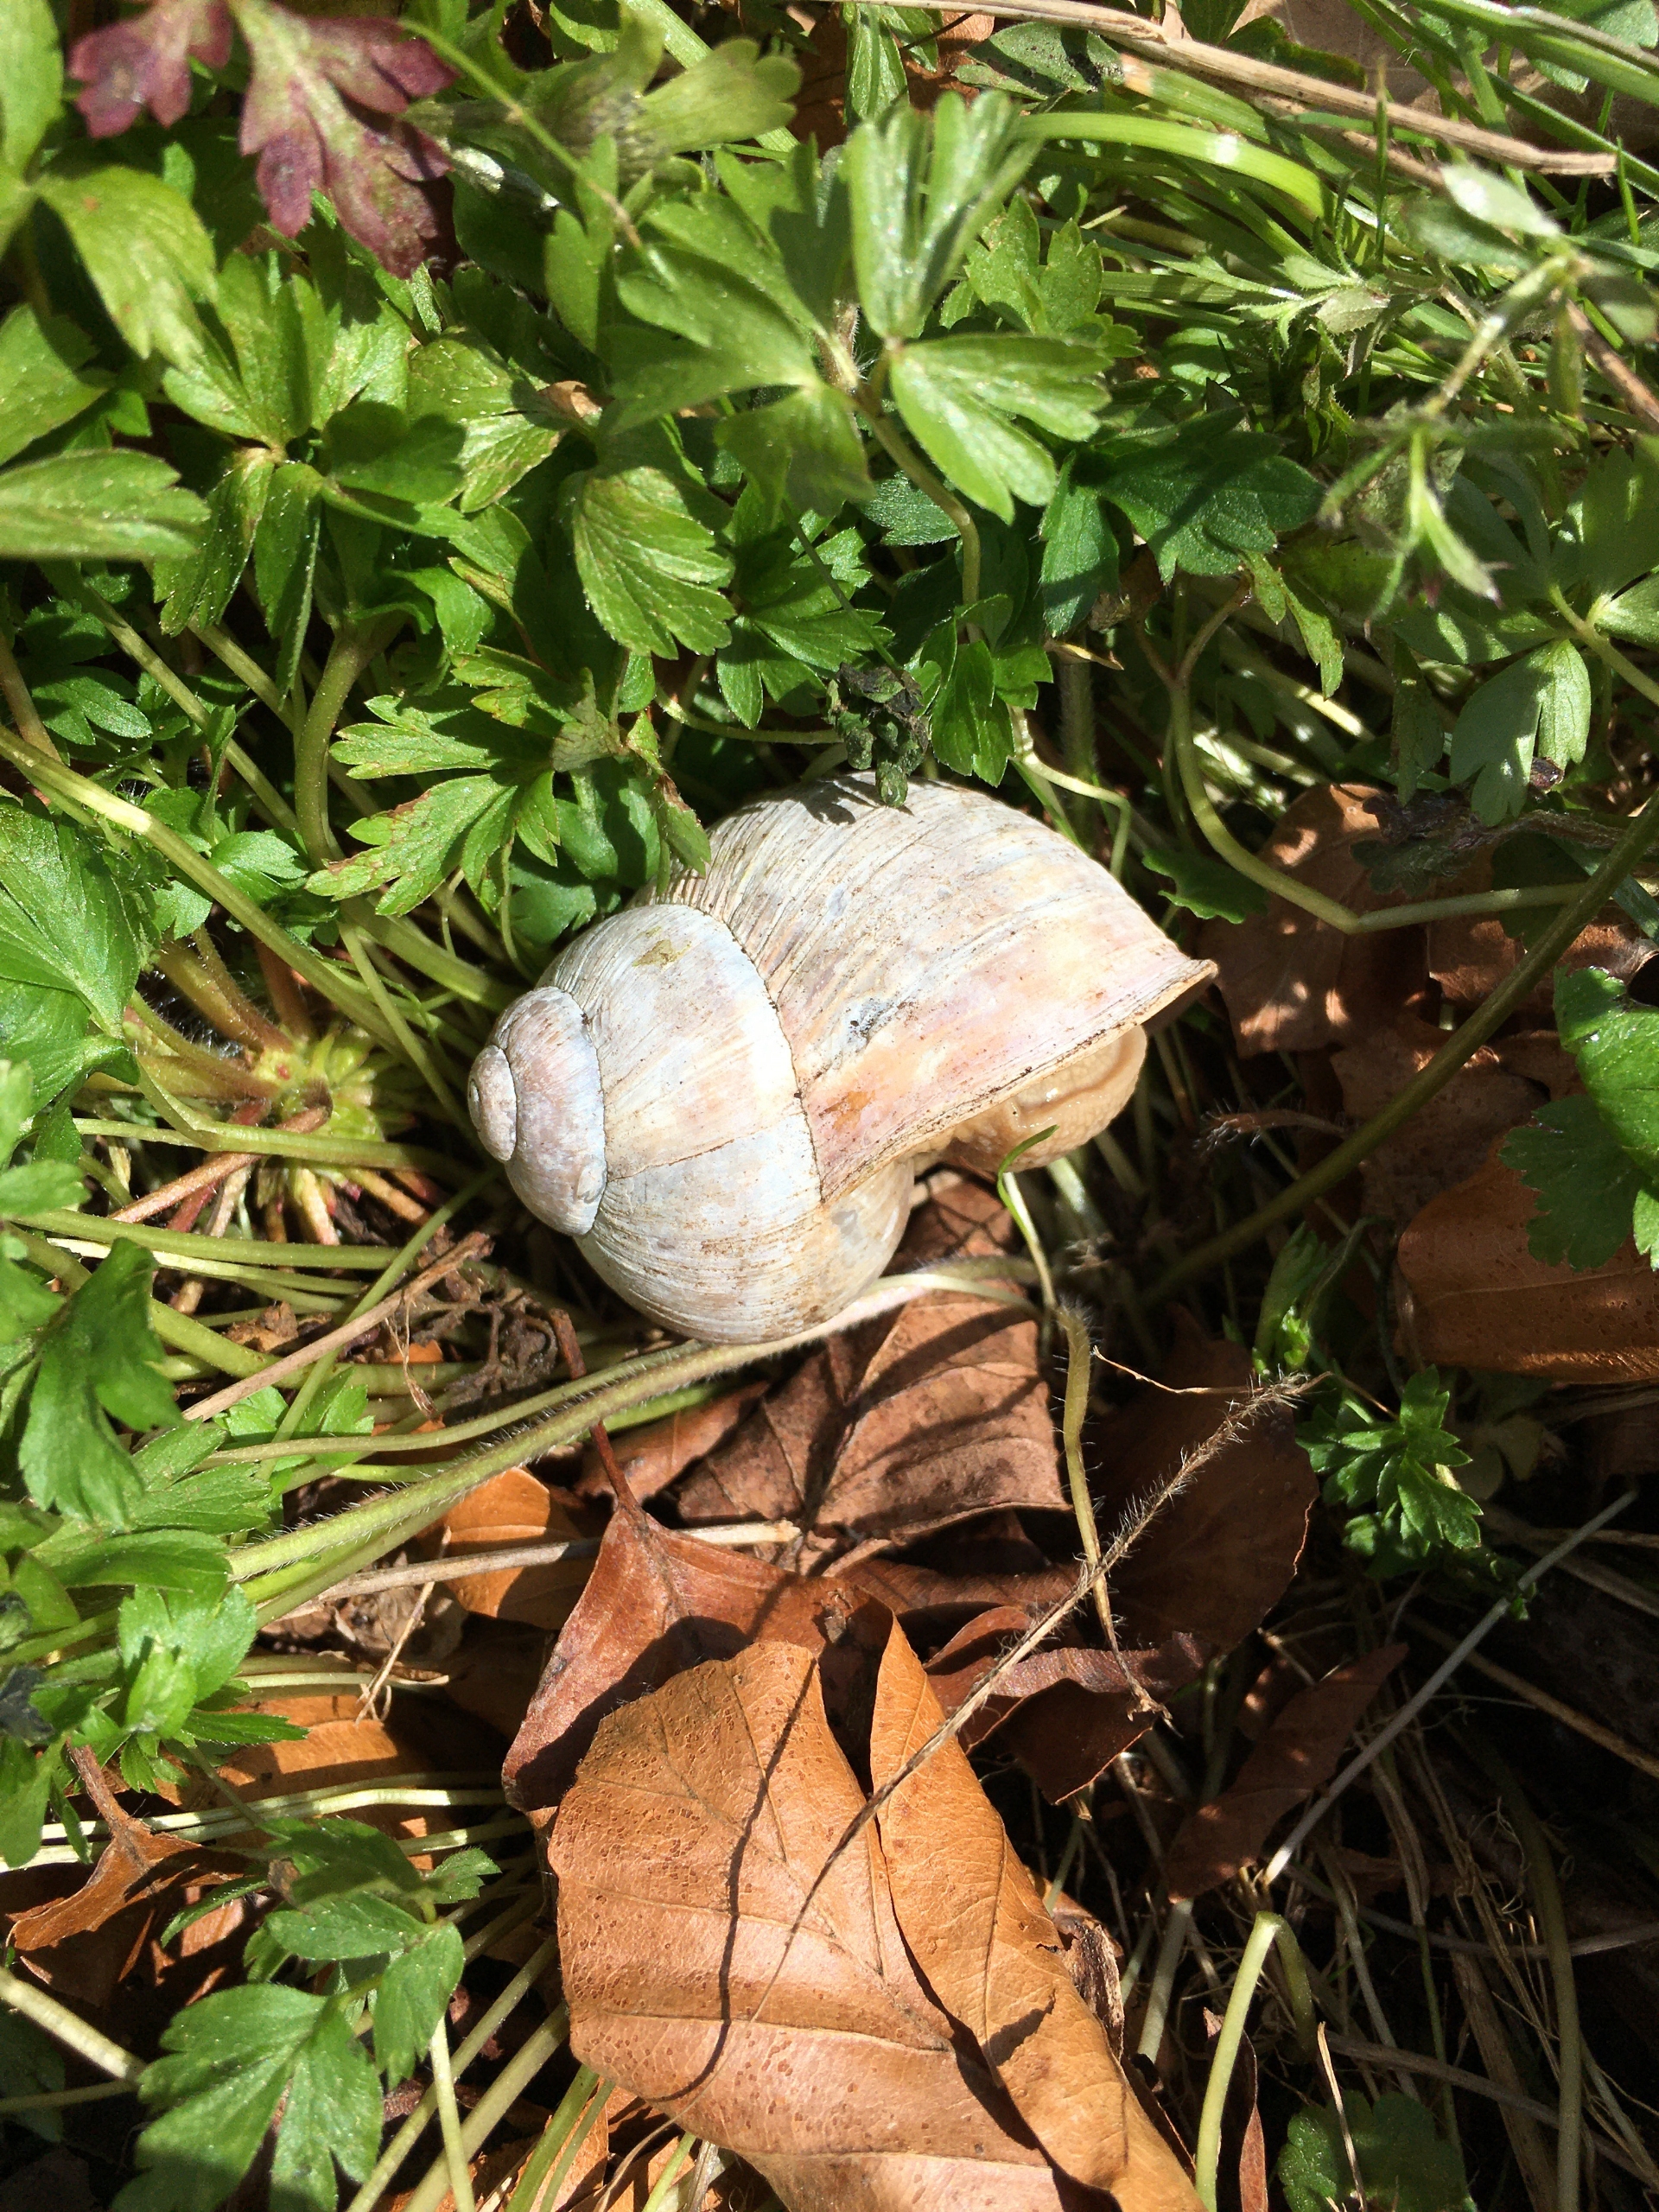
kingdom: Animalia
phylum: Mollusca
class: Gastropoda
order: Stylommatophora
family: Helicidae
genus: Helix
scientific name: Helix pomatia
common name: Vinbjergsnegl
